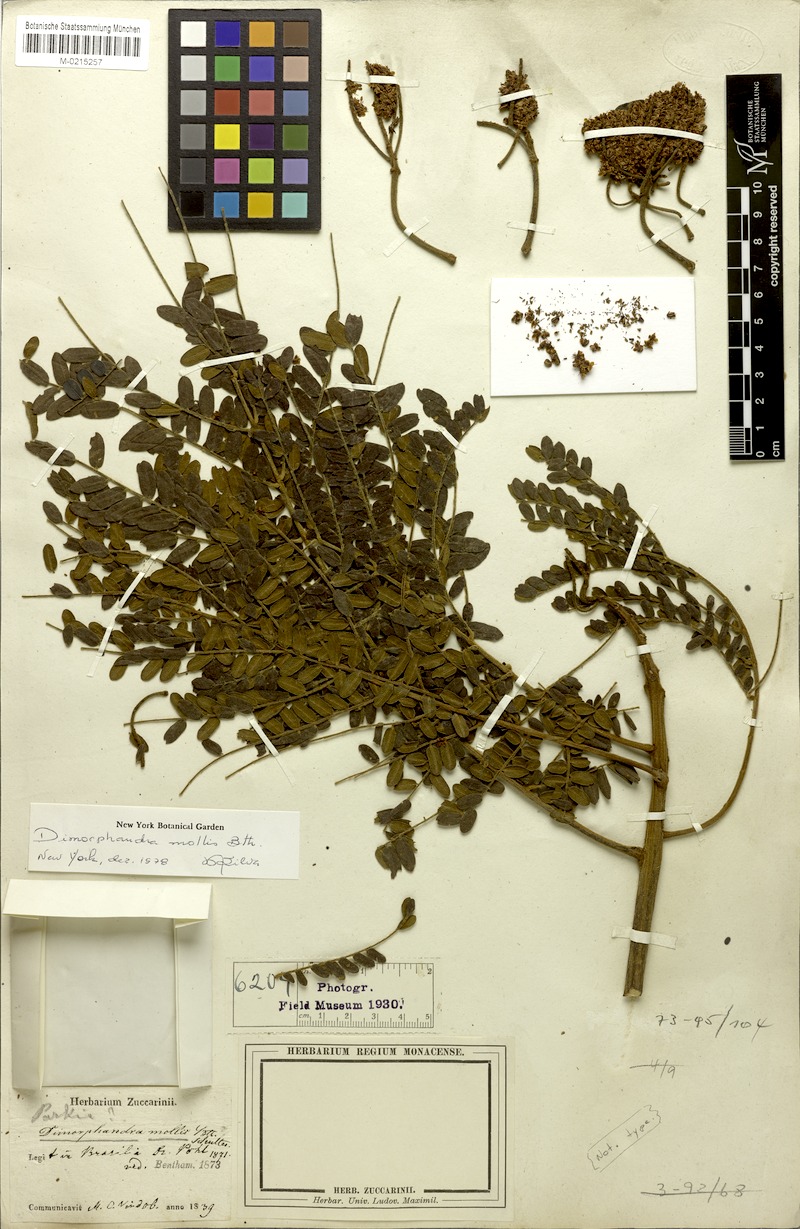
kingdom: Plantae
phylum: Tracheophyta
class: Magnoliopsida
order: Fabales
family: Fabaceae
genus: Dimorphandra
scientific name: Dimorphandra mollis
